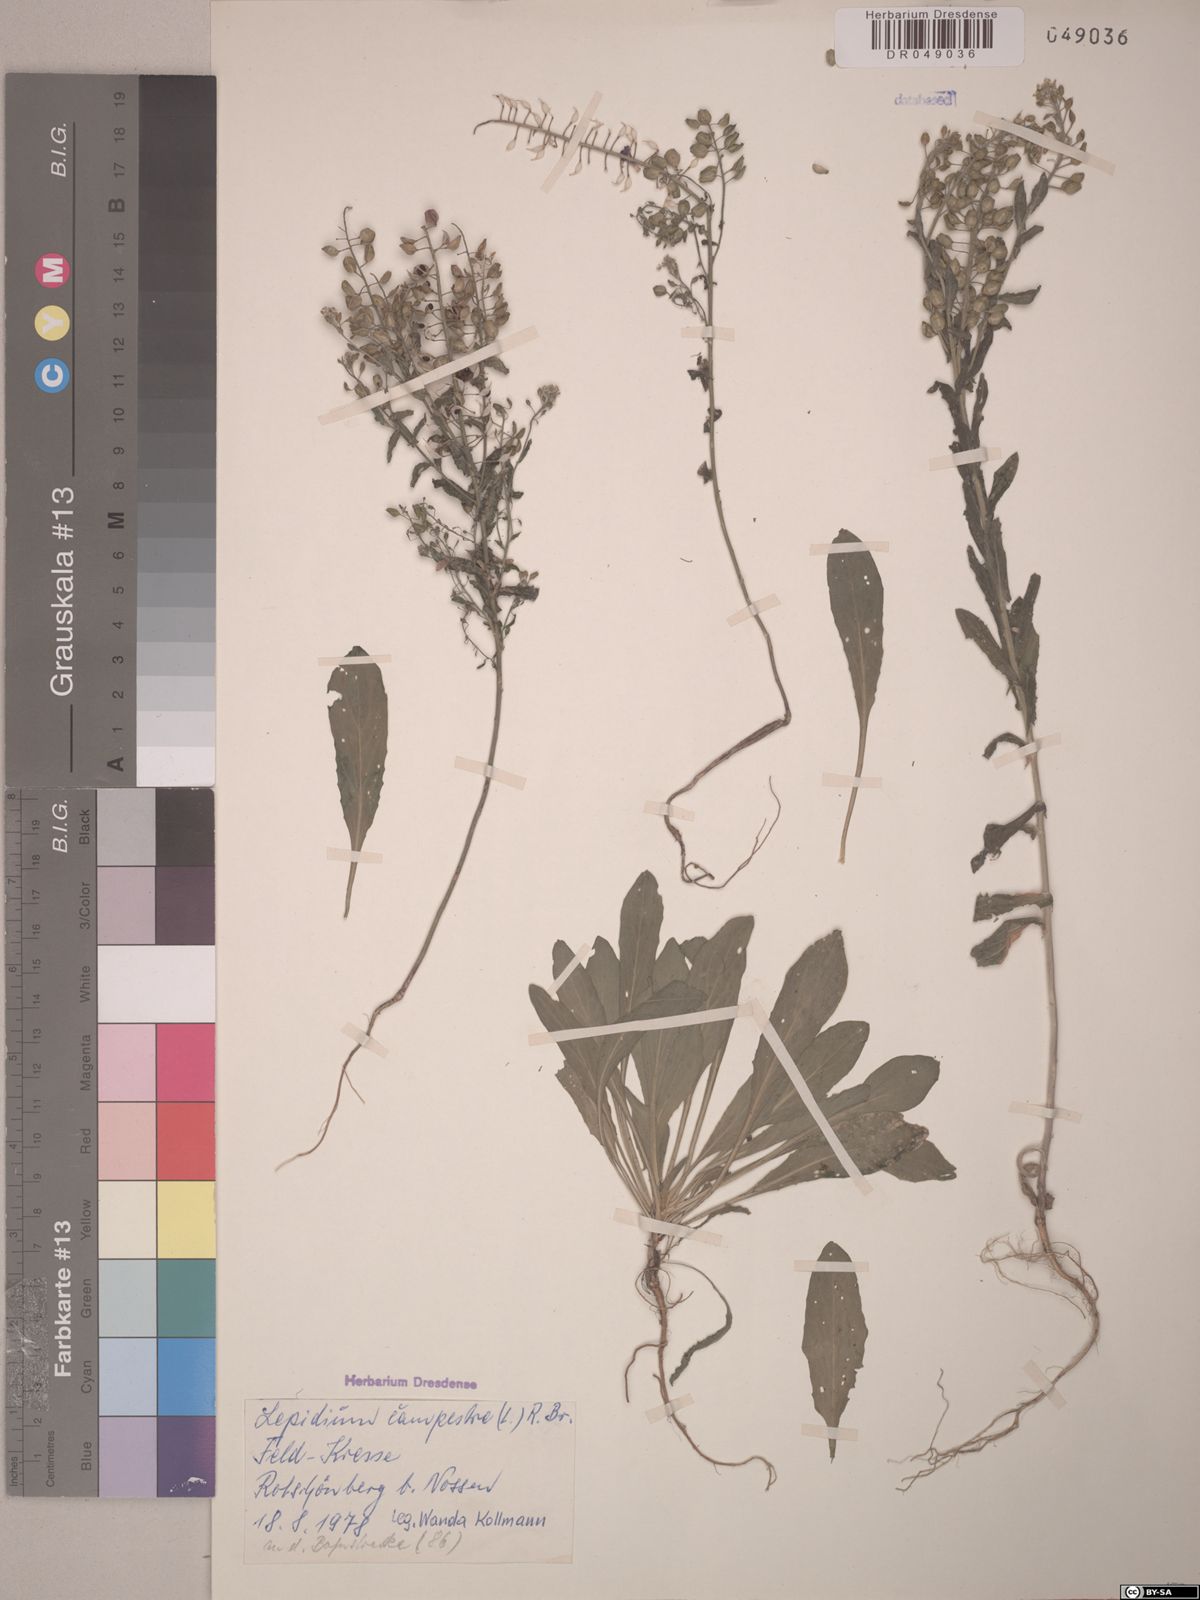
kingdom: Plantae
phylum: Tracheophyta
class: Magnoliopsida
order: Brassicales
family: Brassicaceae
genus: Lepidium
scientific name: Lepidium campestre
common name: Field pepperwort
